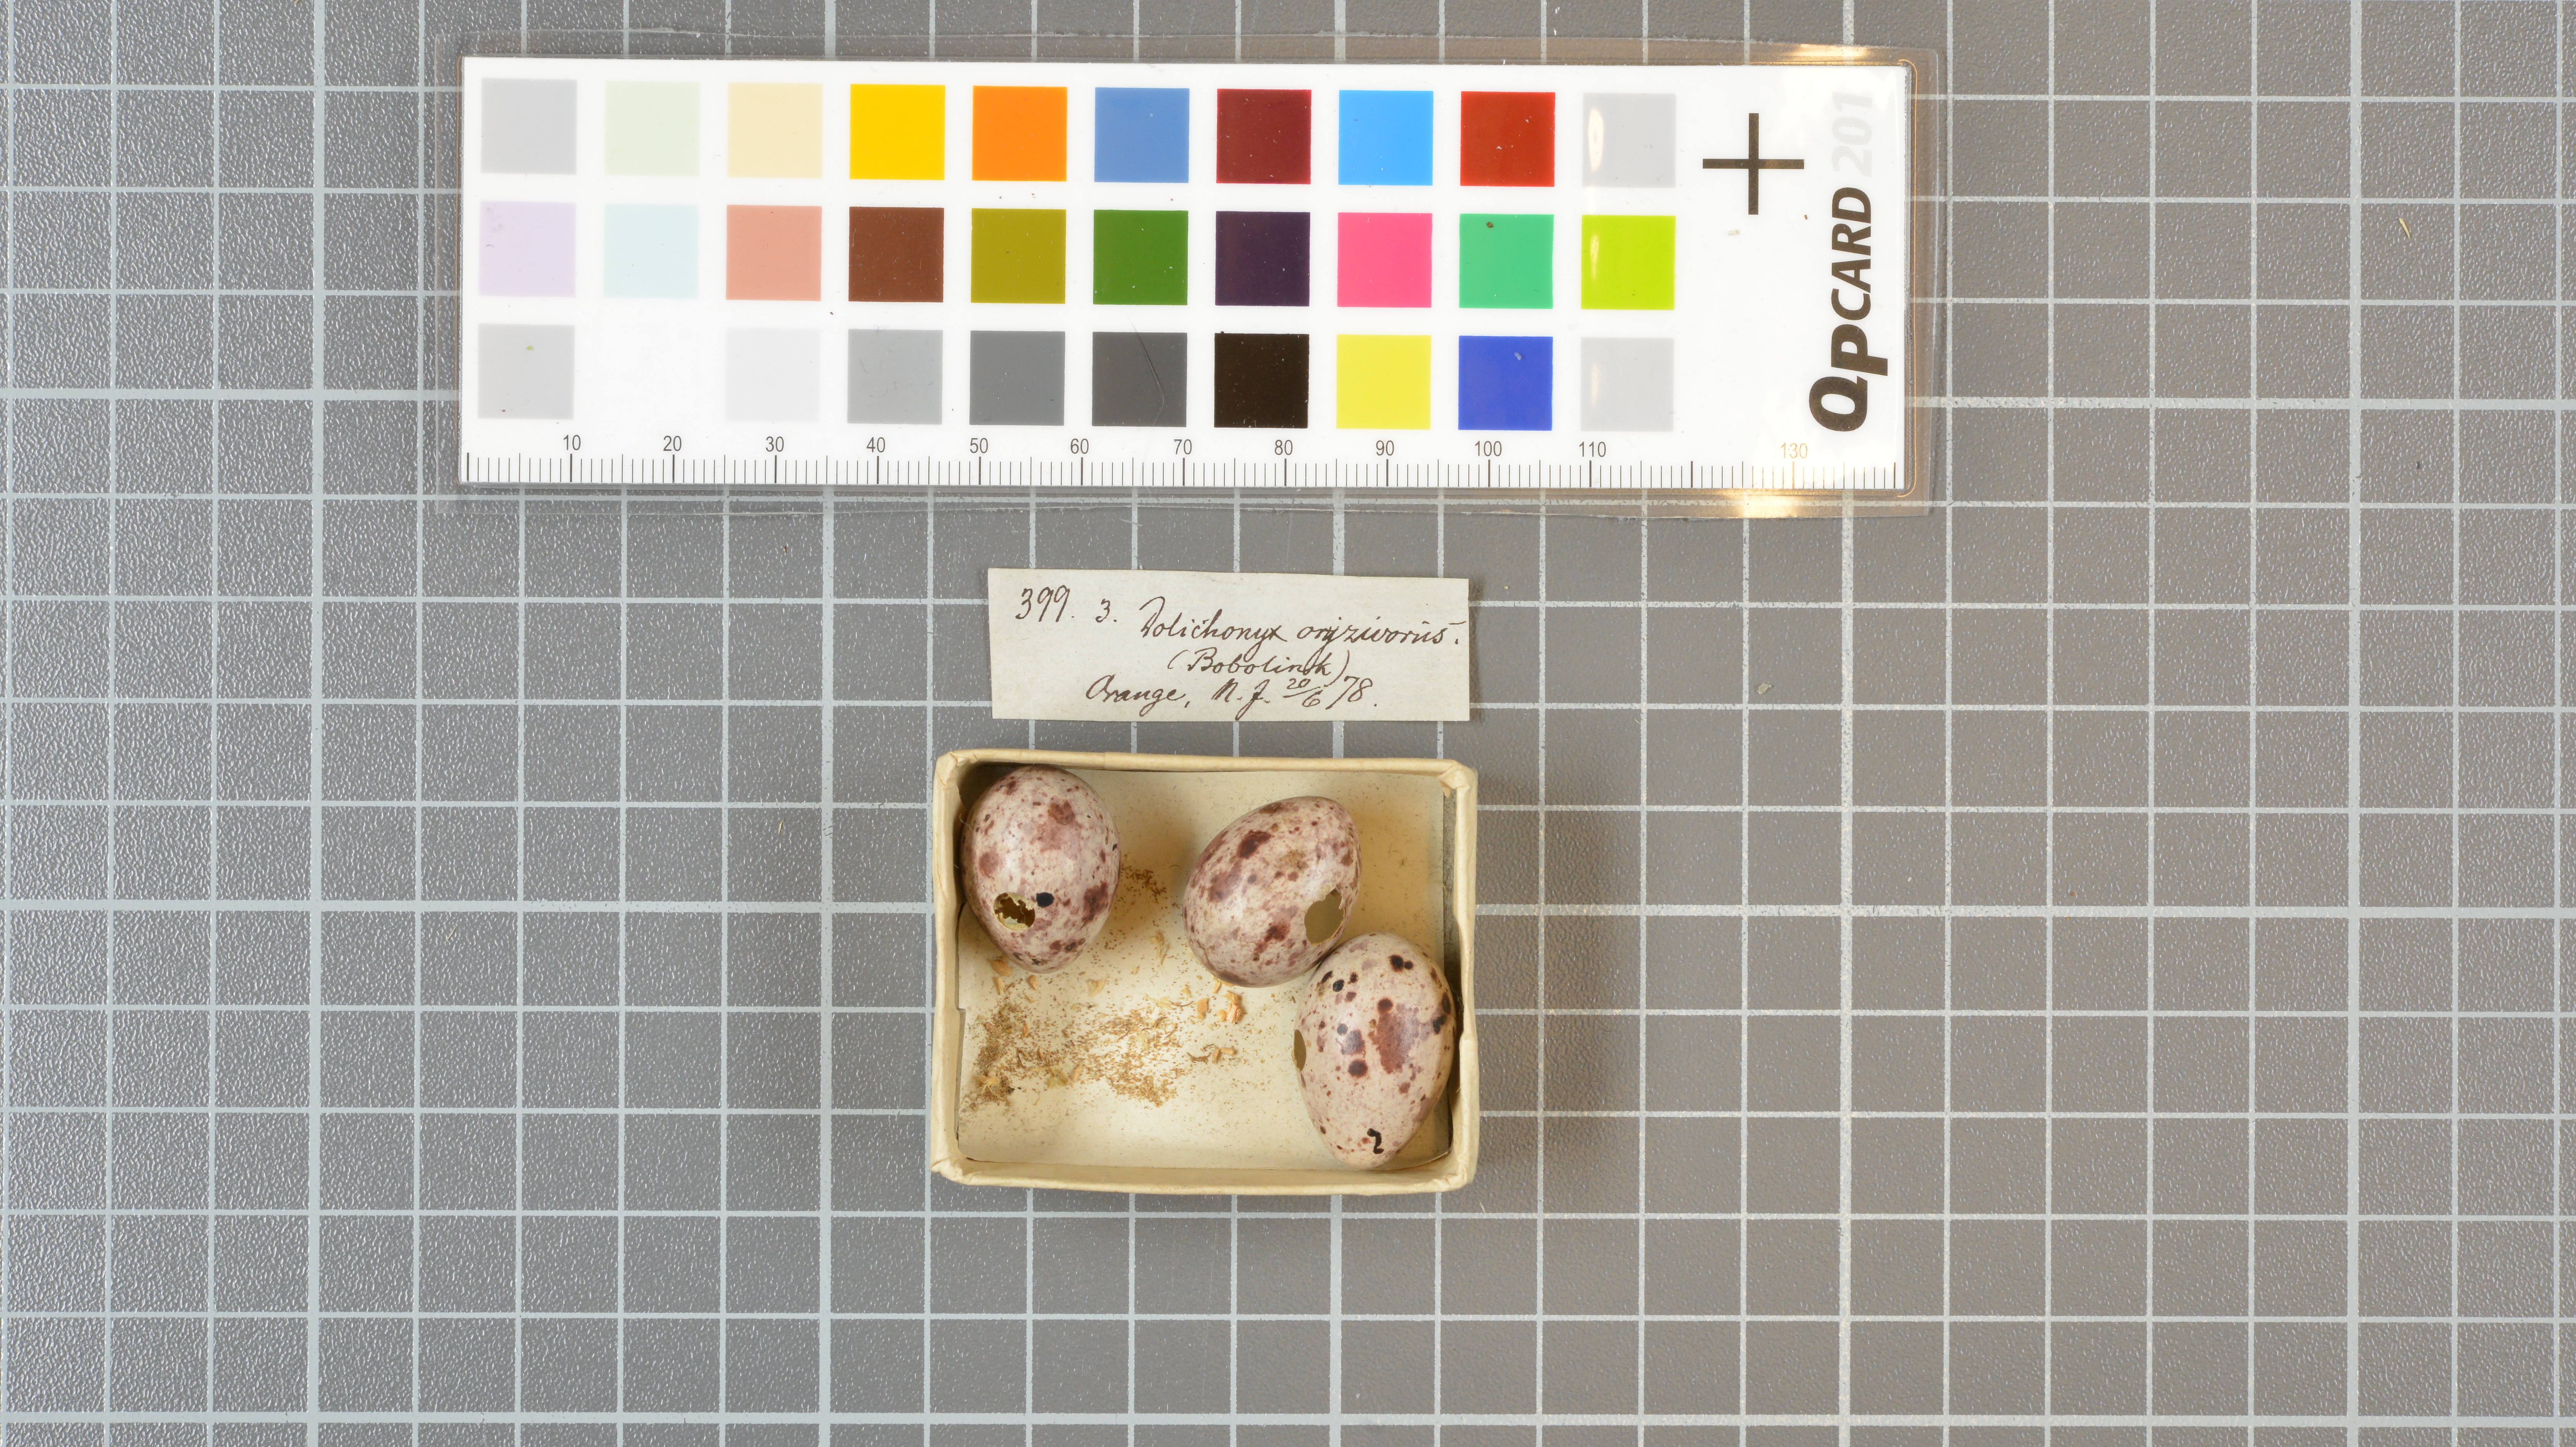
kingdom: Animalia
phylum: Chordata
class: Aves
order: Passeriformes
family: Icteridae
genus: Dolichonyx
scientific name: Dolichonyx oryzivorus
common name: Bobolink
